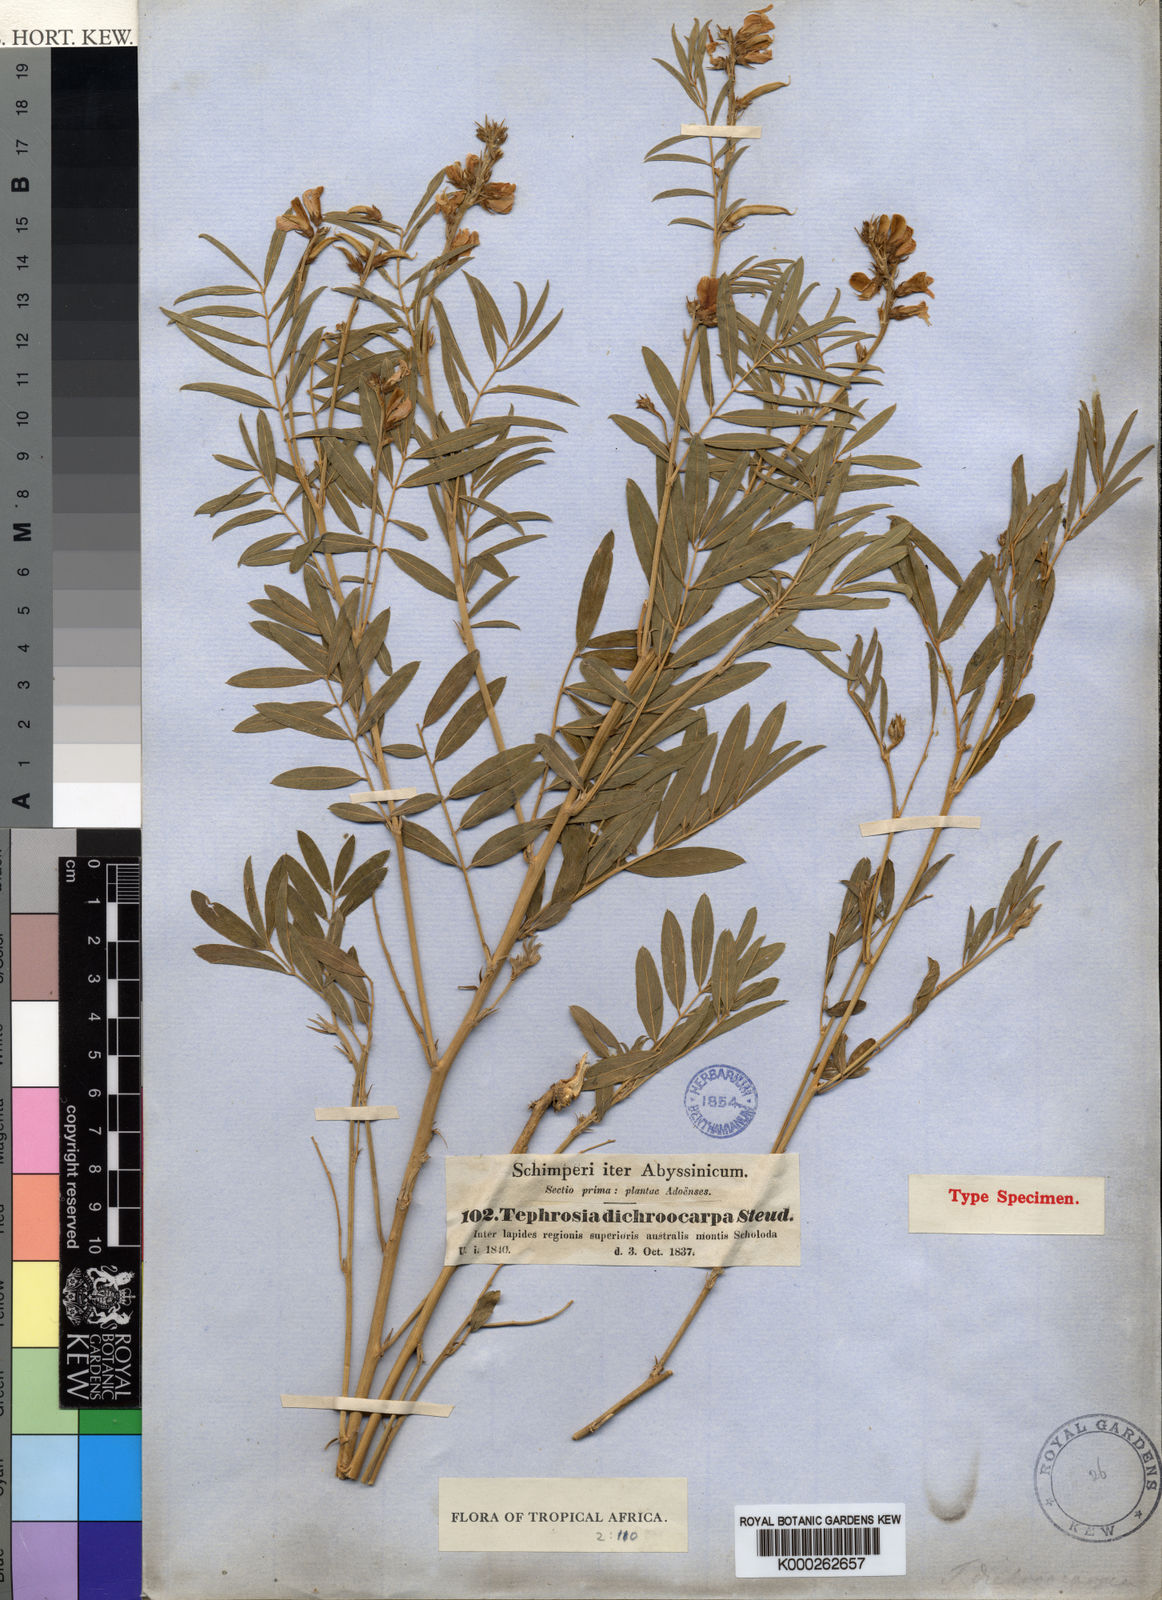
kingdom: Plantae
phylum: Tracheophyta
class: Magnoliopsida
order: Fabales
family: Fabaceae
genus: Tephrosia
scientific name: Tephrosia dichroocarpa
